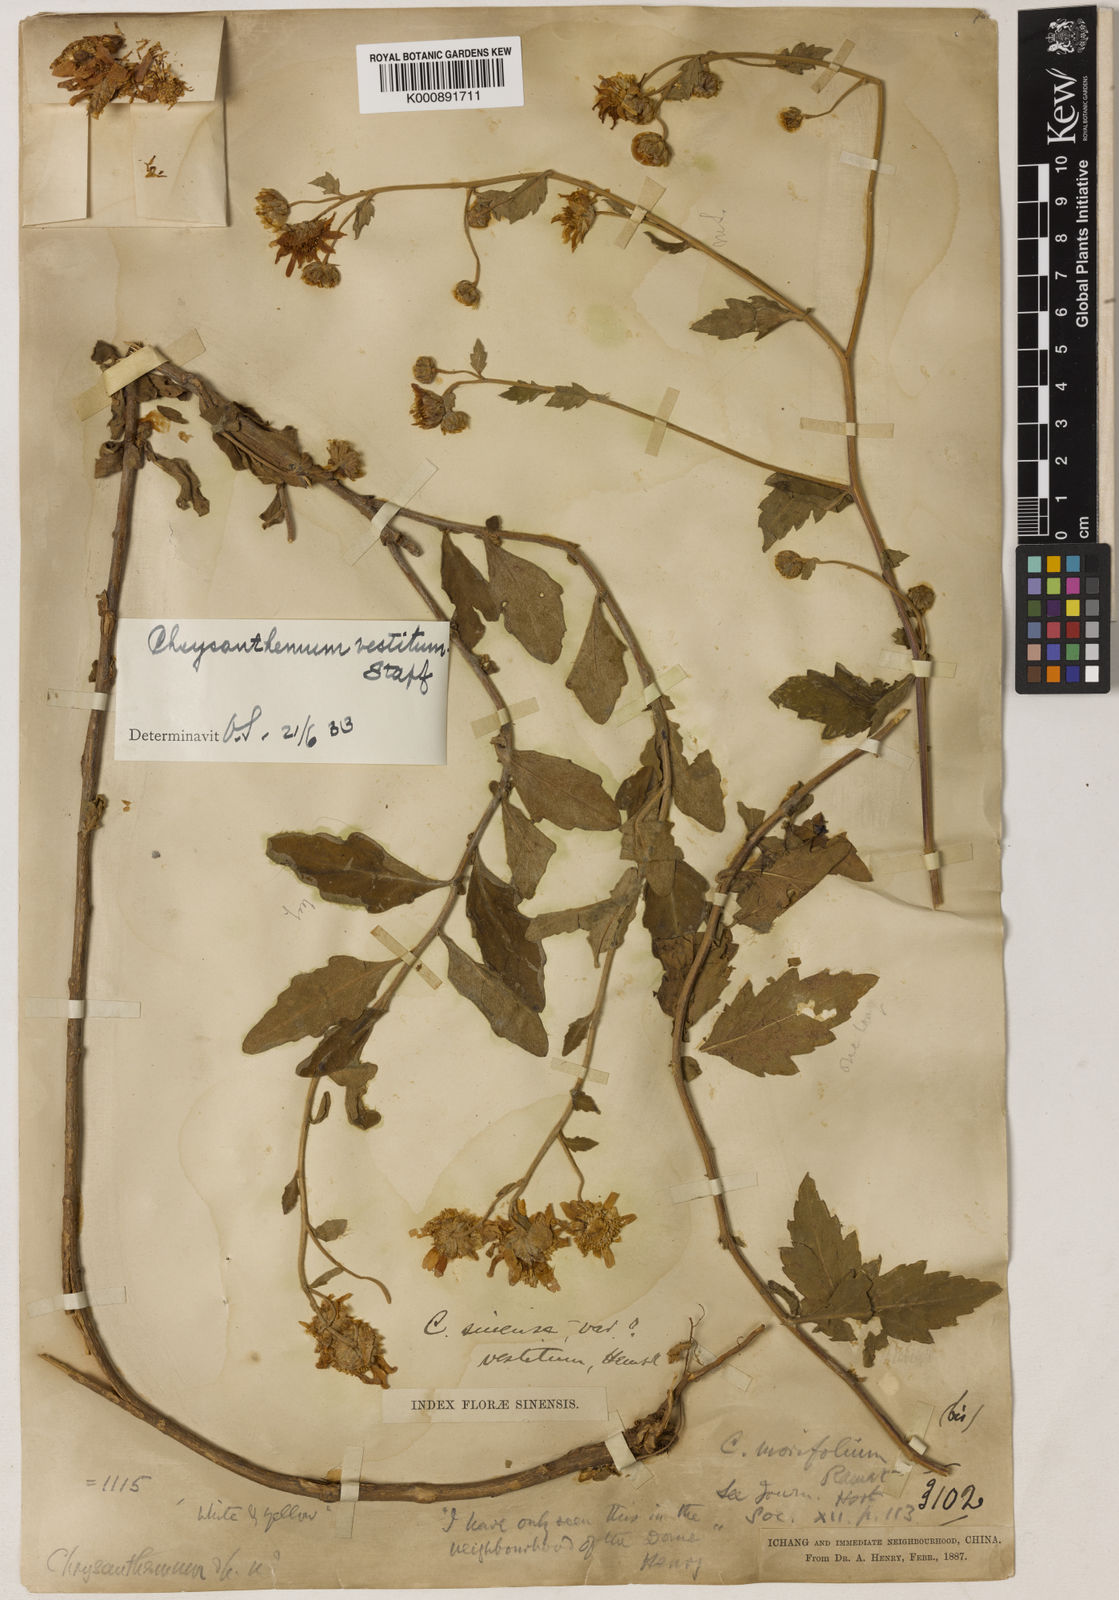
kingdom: Plantae
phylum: Tracheophyta
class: Magnoliopsida
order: Asterales
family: Asteraceae
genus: Chrysanthemum
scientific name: Chrysanthemum vestitum
